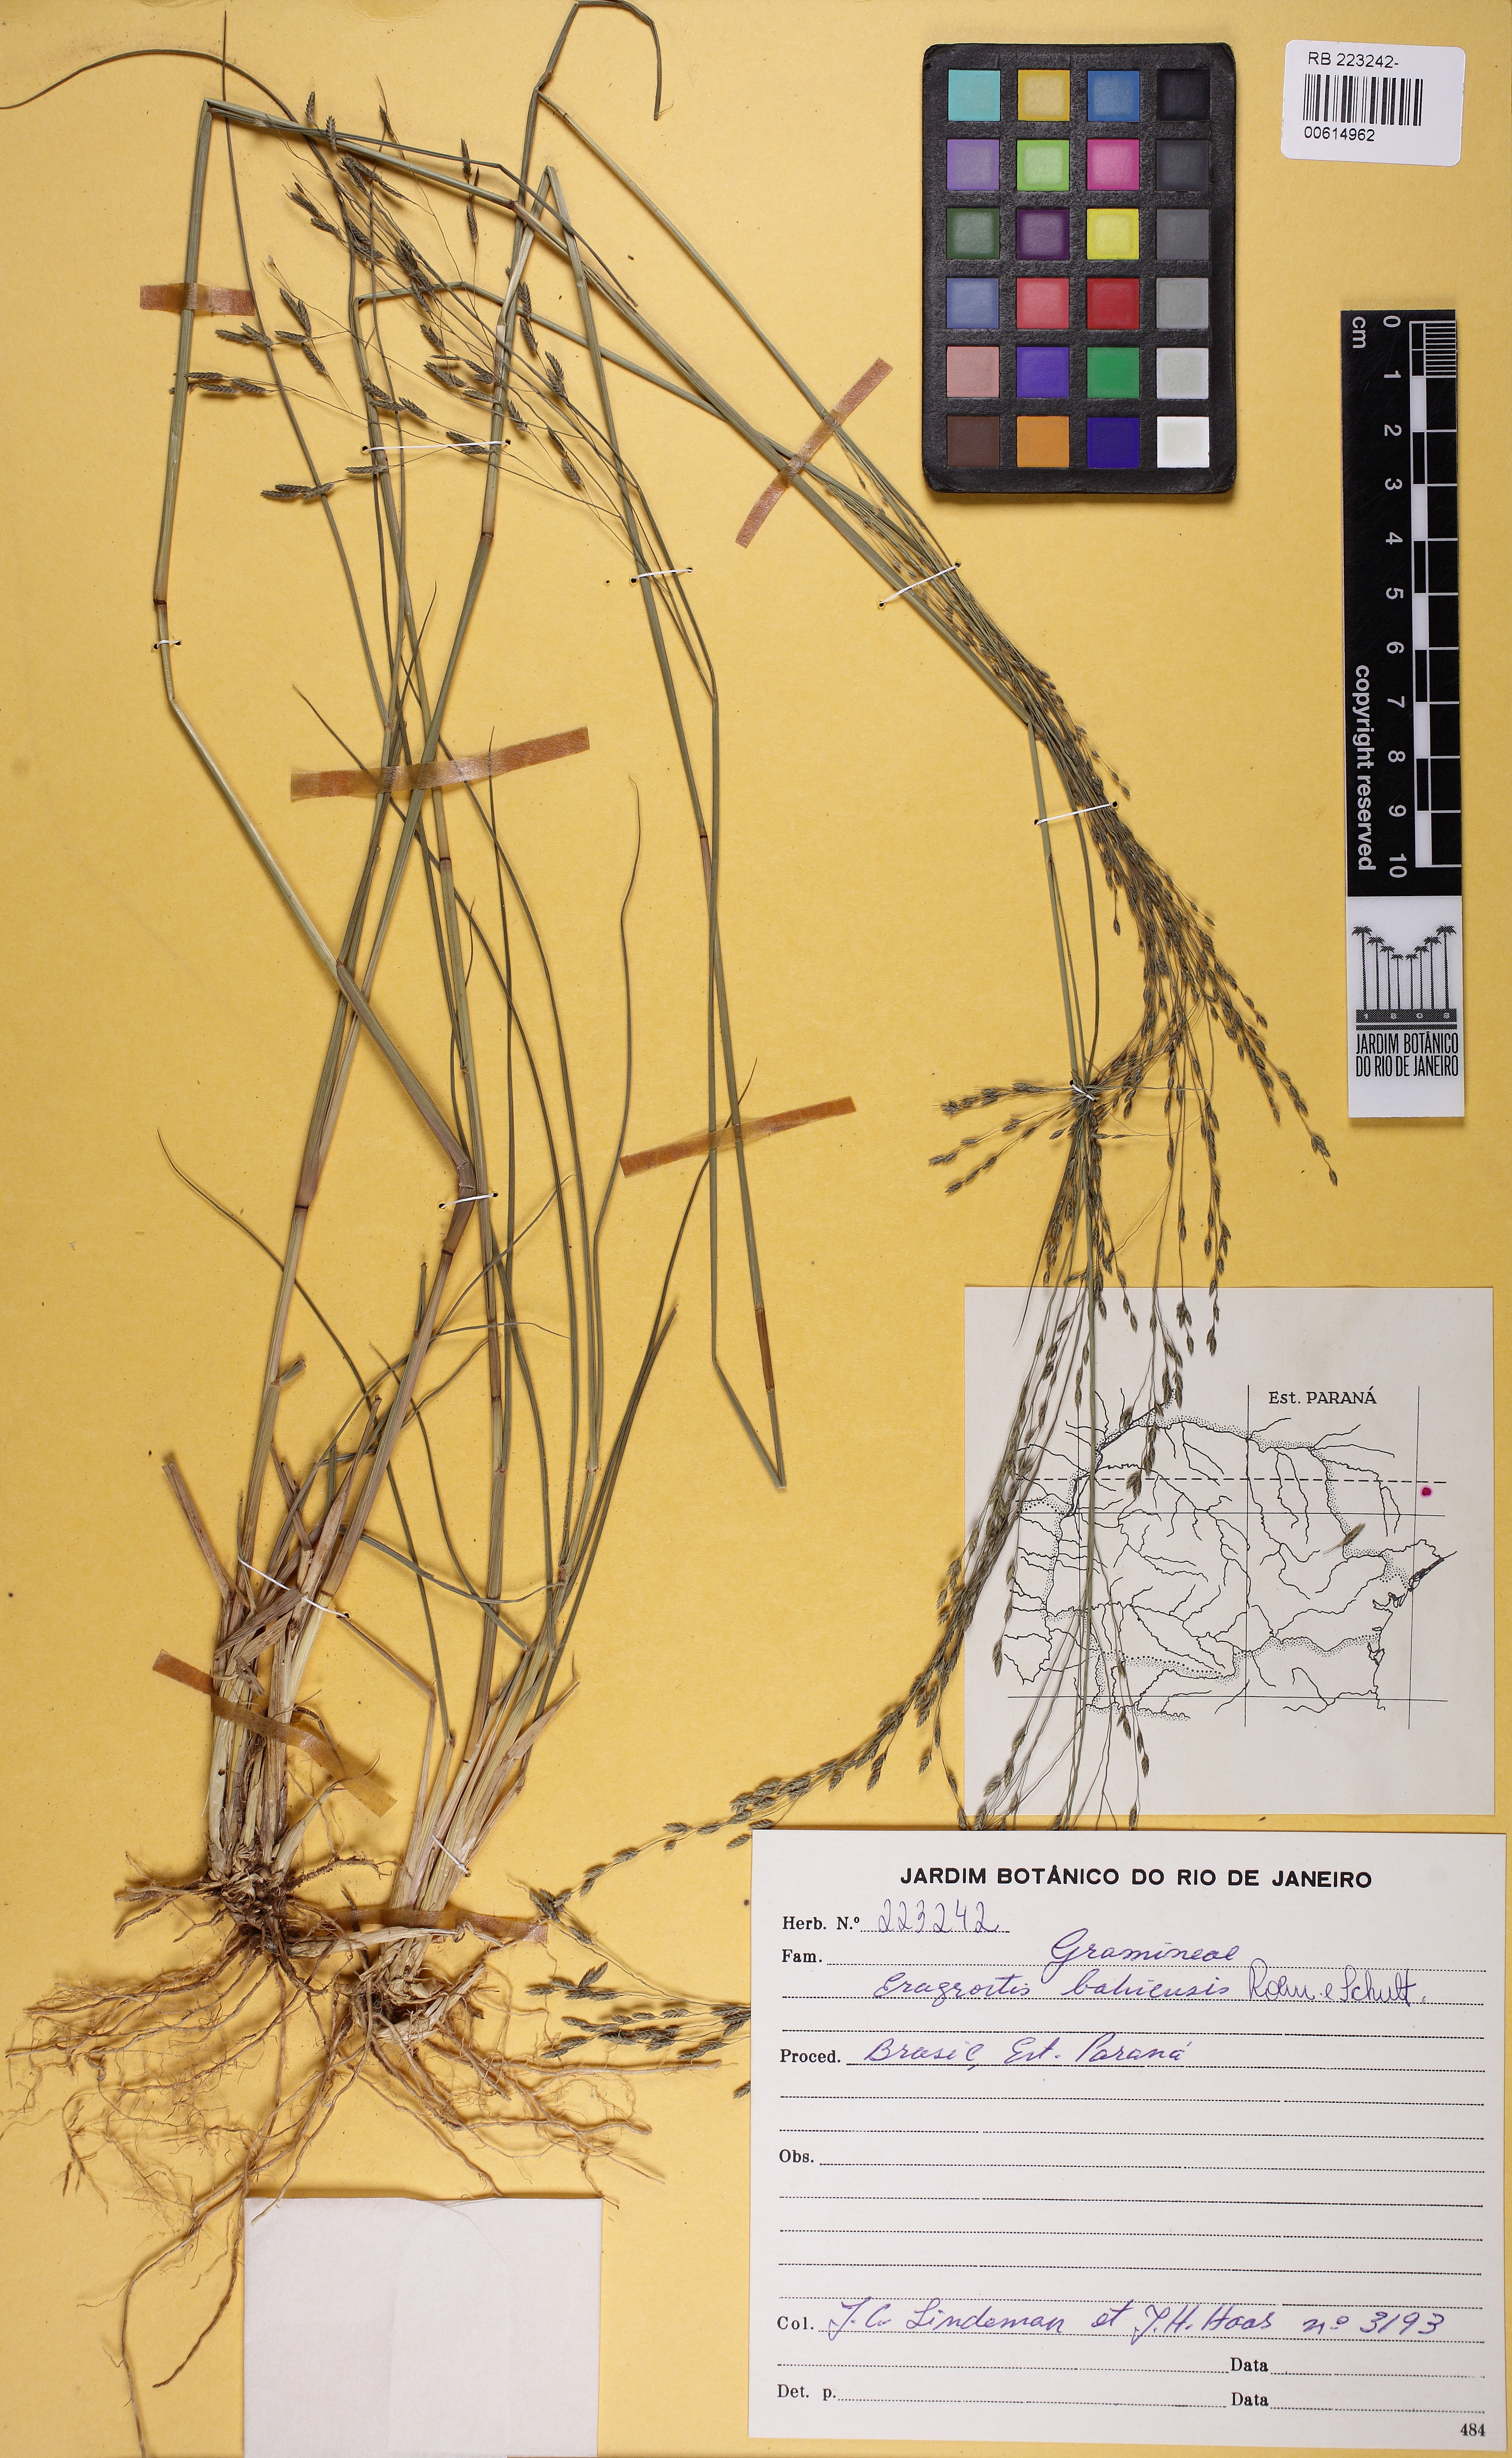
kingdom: Plantae
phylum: Tracheophyta
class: Liliopsida
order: Poales
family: Poaceae
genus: Eragrostis
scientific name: Eragrostis bahiensis
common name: Bahia lovegrass
